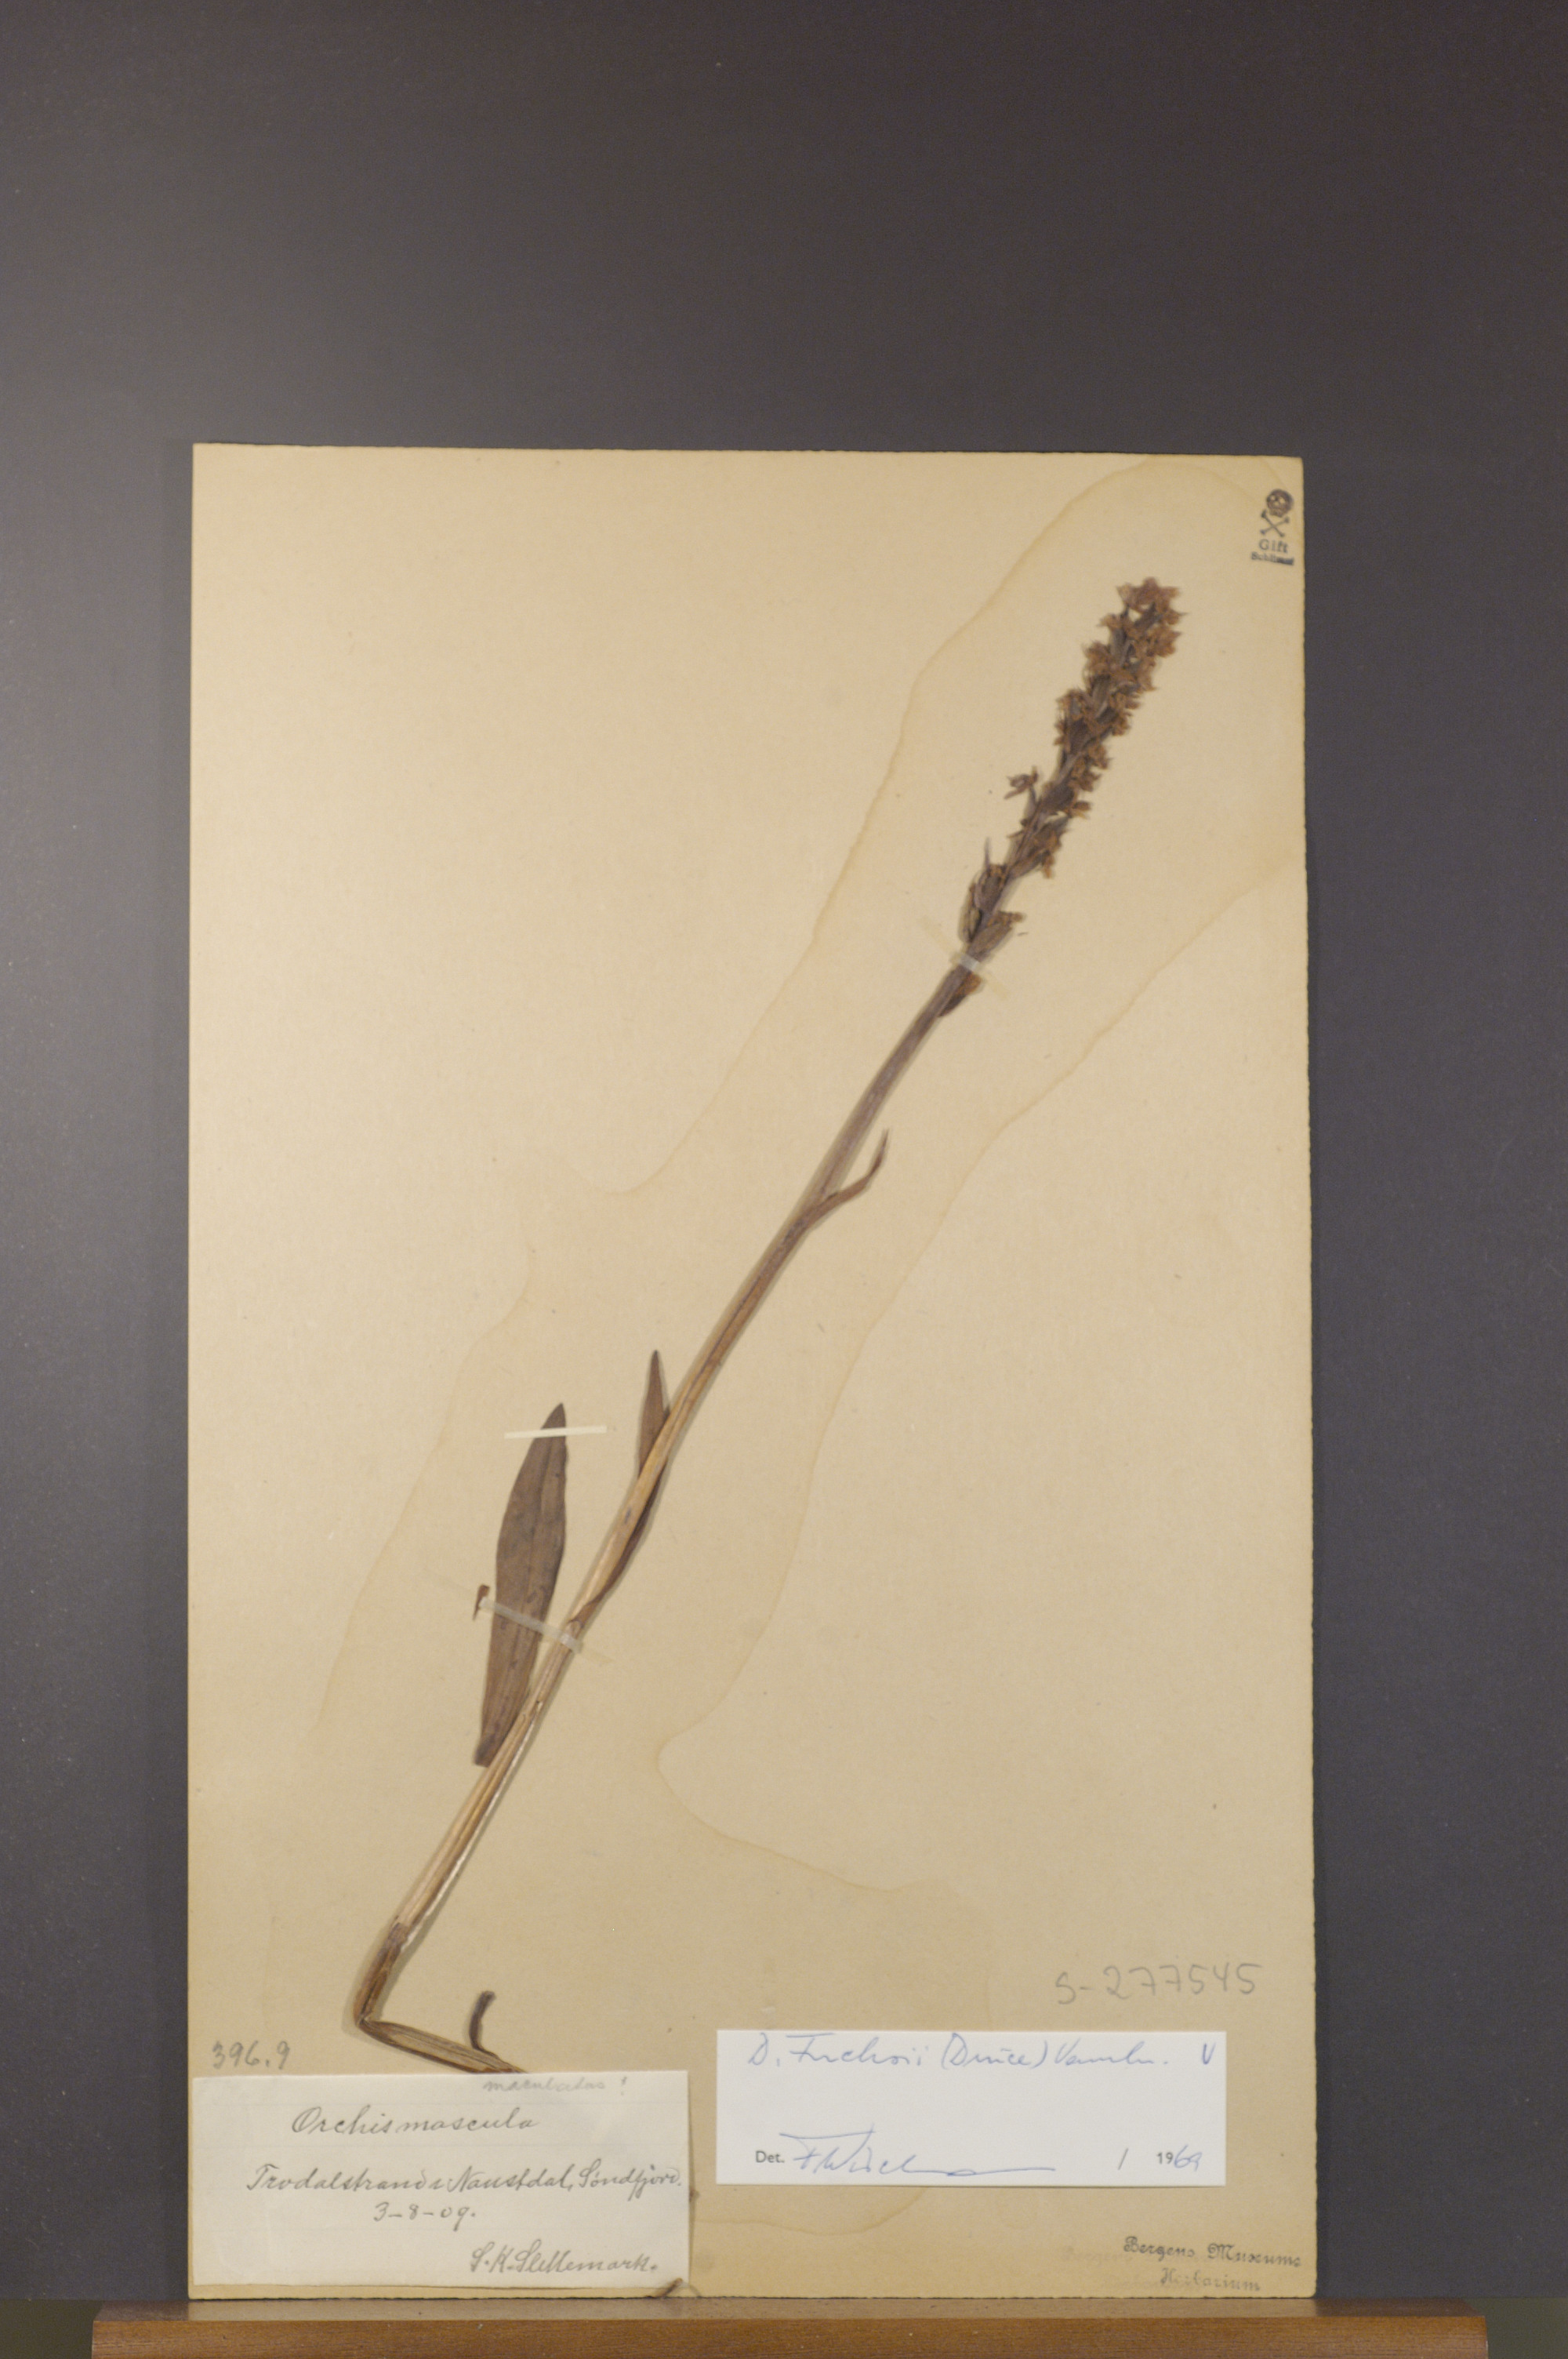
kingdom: Plantae
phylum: Tracheophyta
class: Liliopsida
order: Asparagales
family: Orchidaceae
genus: Dactylorhiza
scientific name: Dactylorhiza maculata
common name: Heath spotted-orchid
